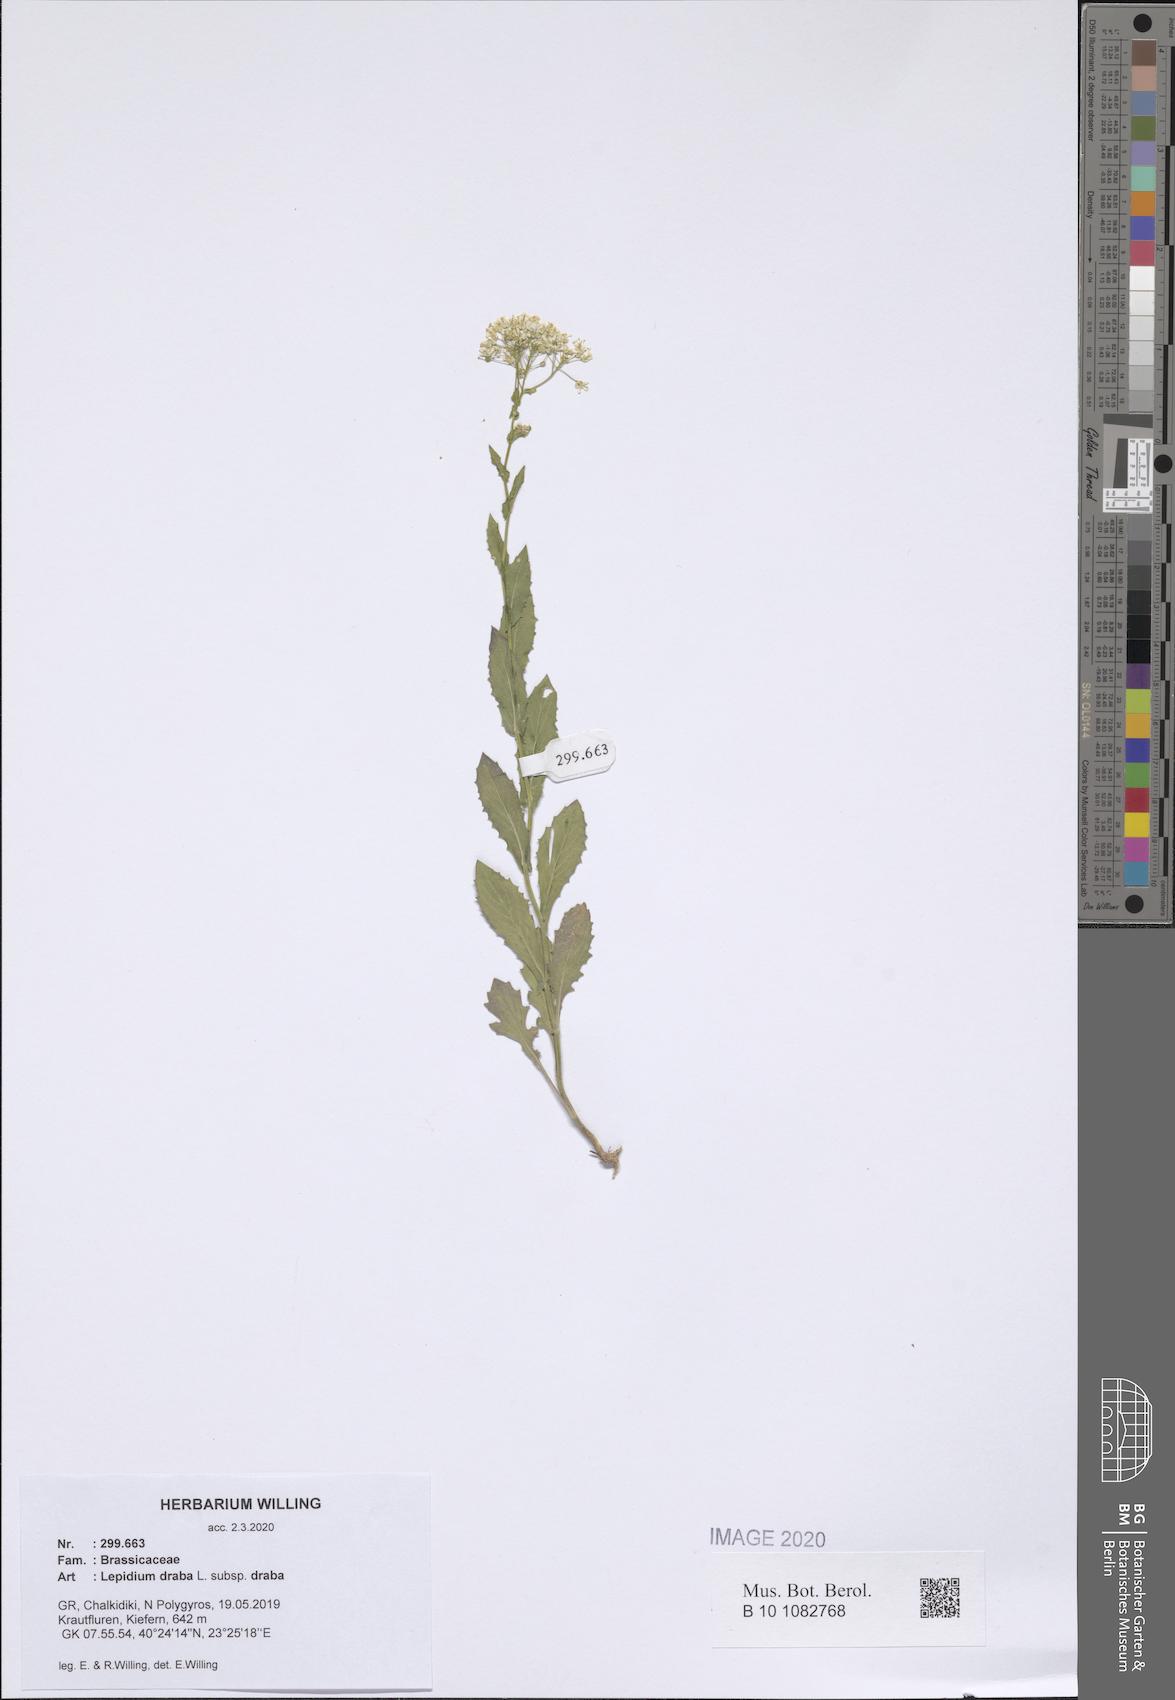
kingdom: Plantae
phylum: Tracheophyta
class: Magnoliopsida
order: Brassicales
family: Brassicaceae
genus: Lepidium
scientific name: Lepidium draba
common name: Hoary cress
